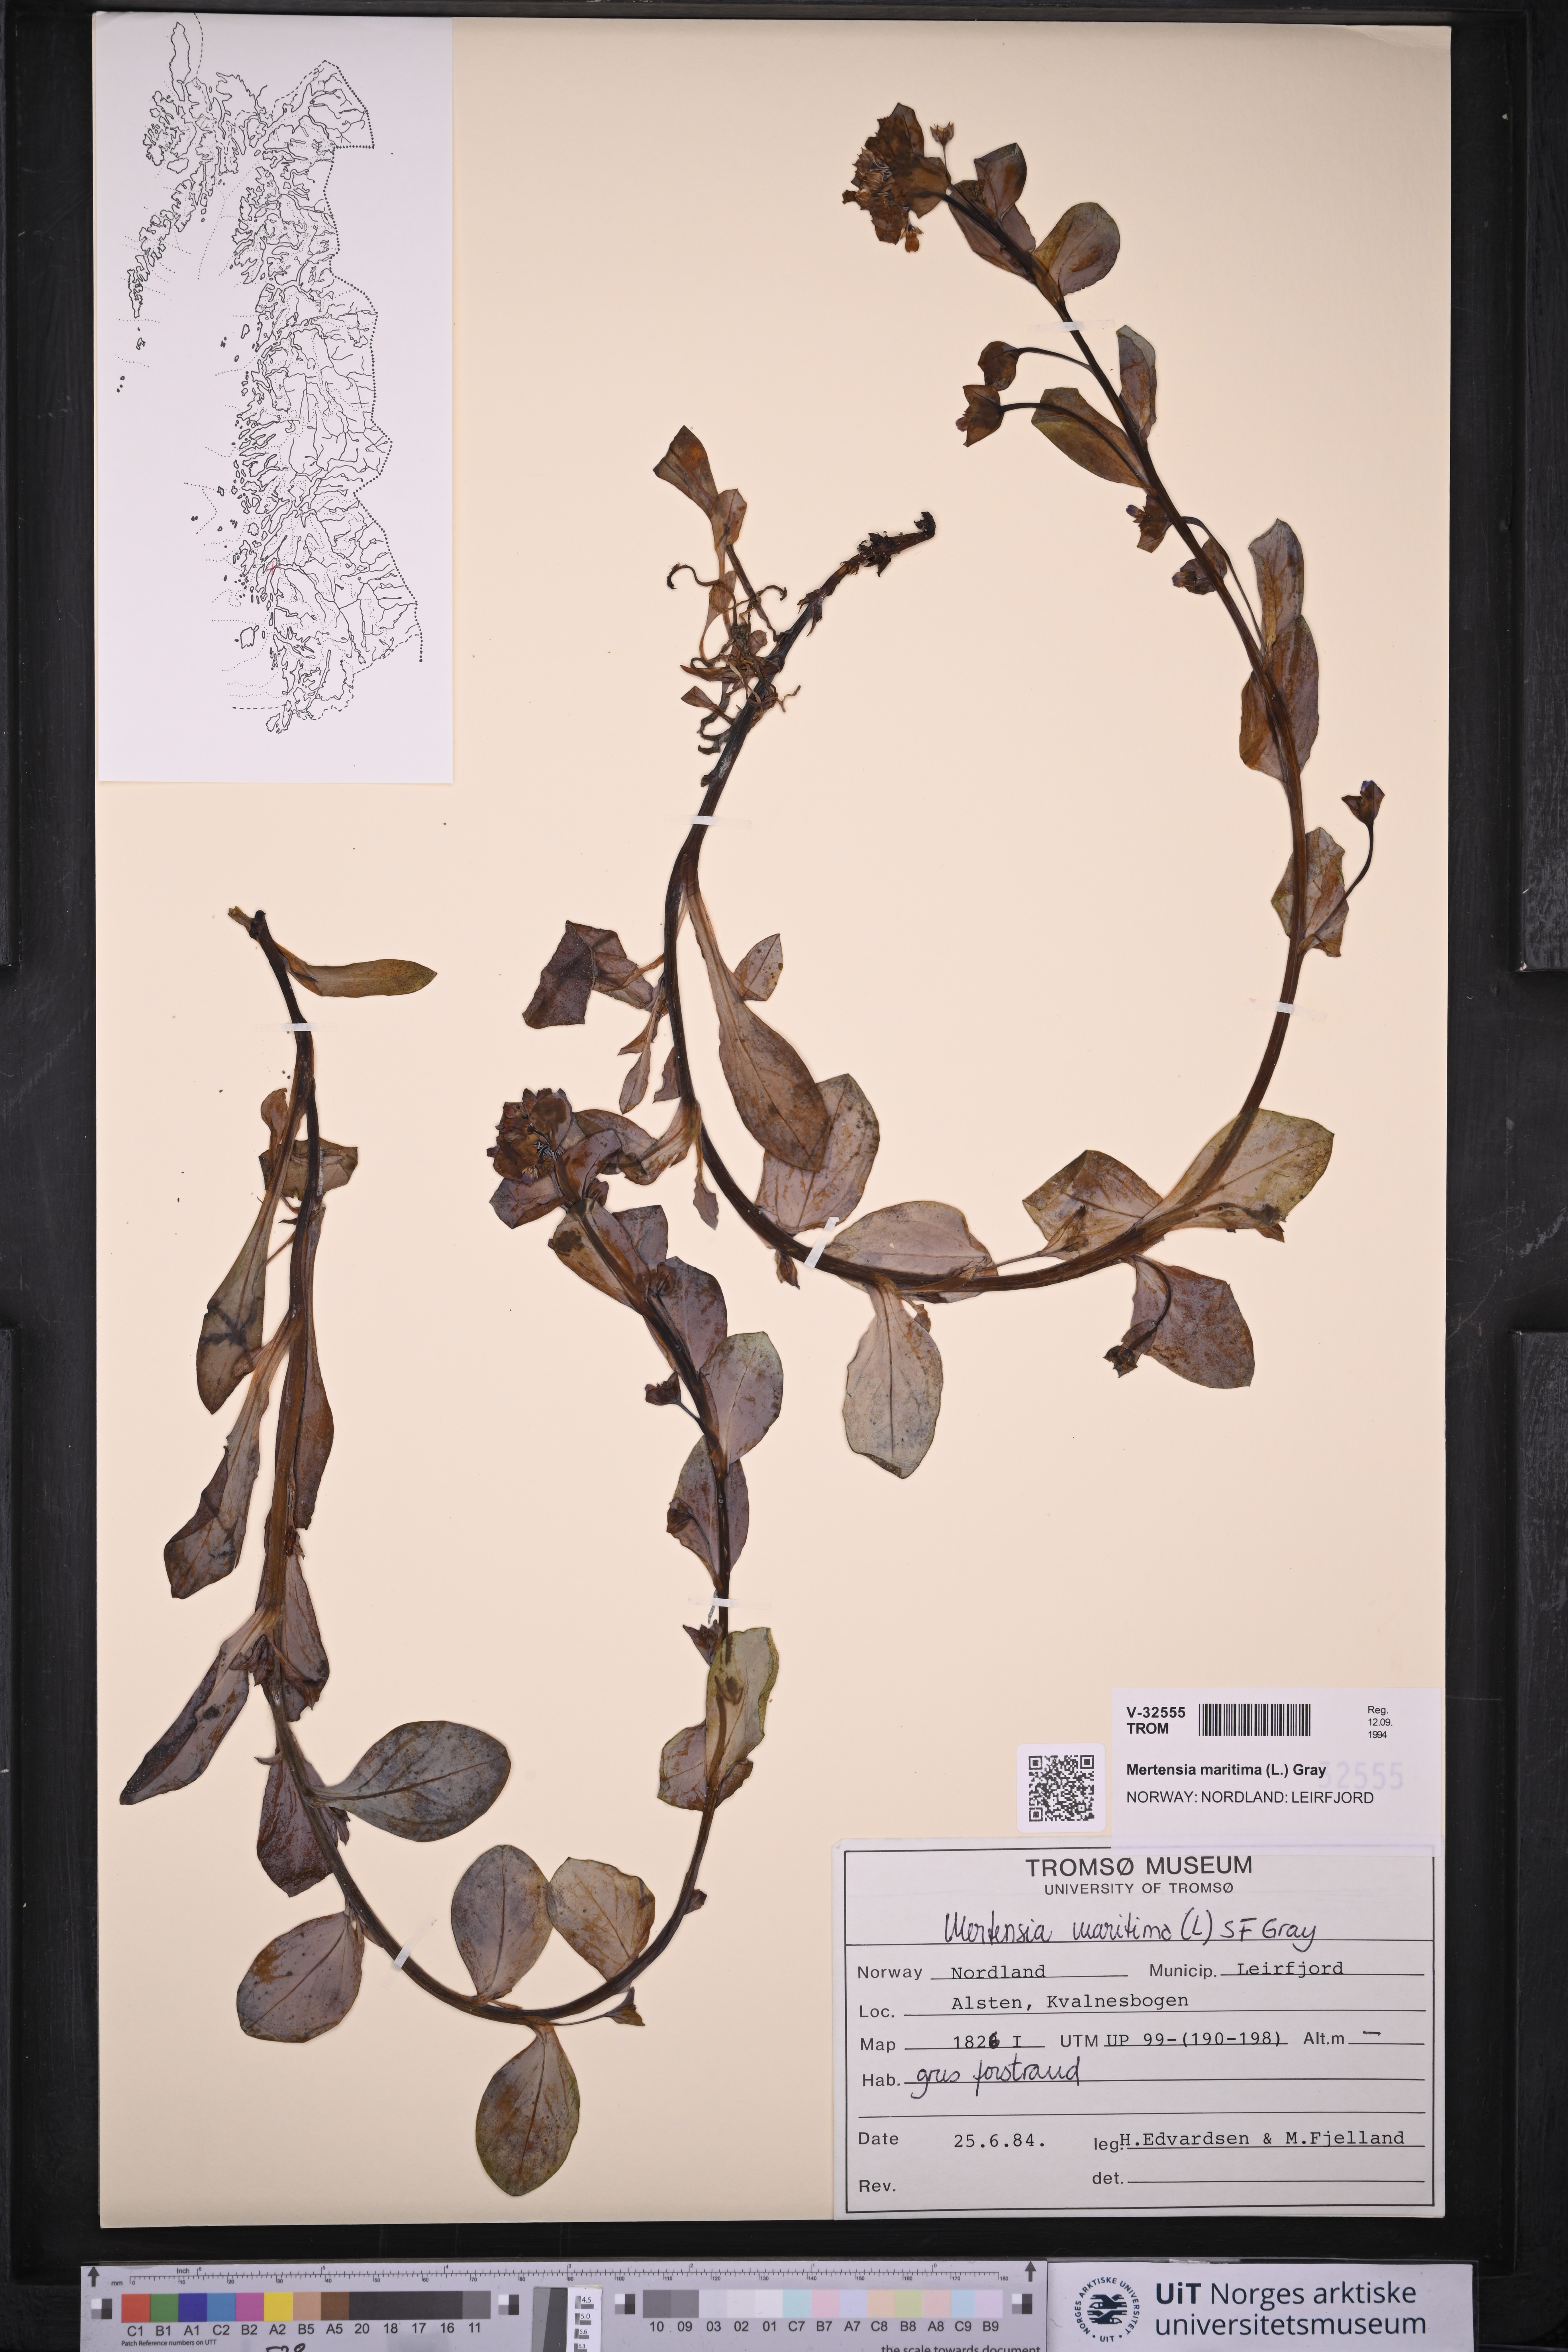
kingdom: Plantae
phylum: Tracheophyta
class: Magnoliopsida
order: Boraginales
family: Boraginaceae
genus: Mertensia
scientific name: Mertensia maritima
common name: Oysterplant
